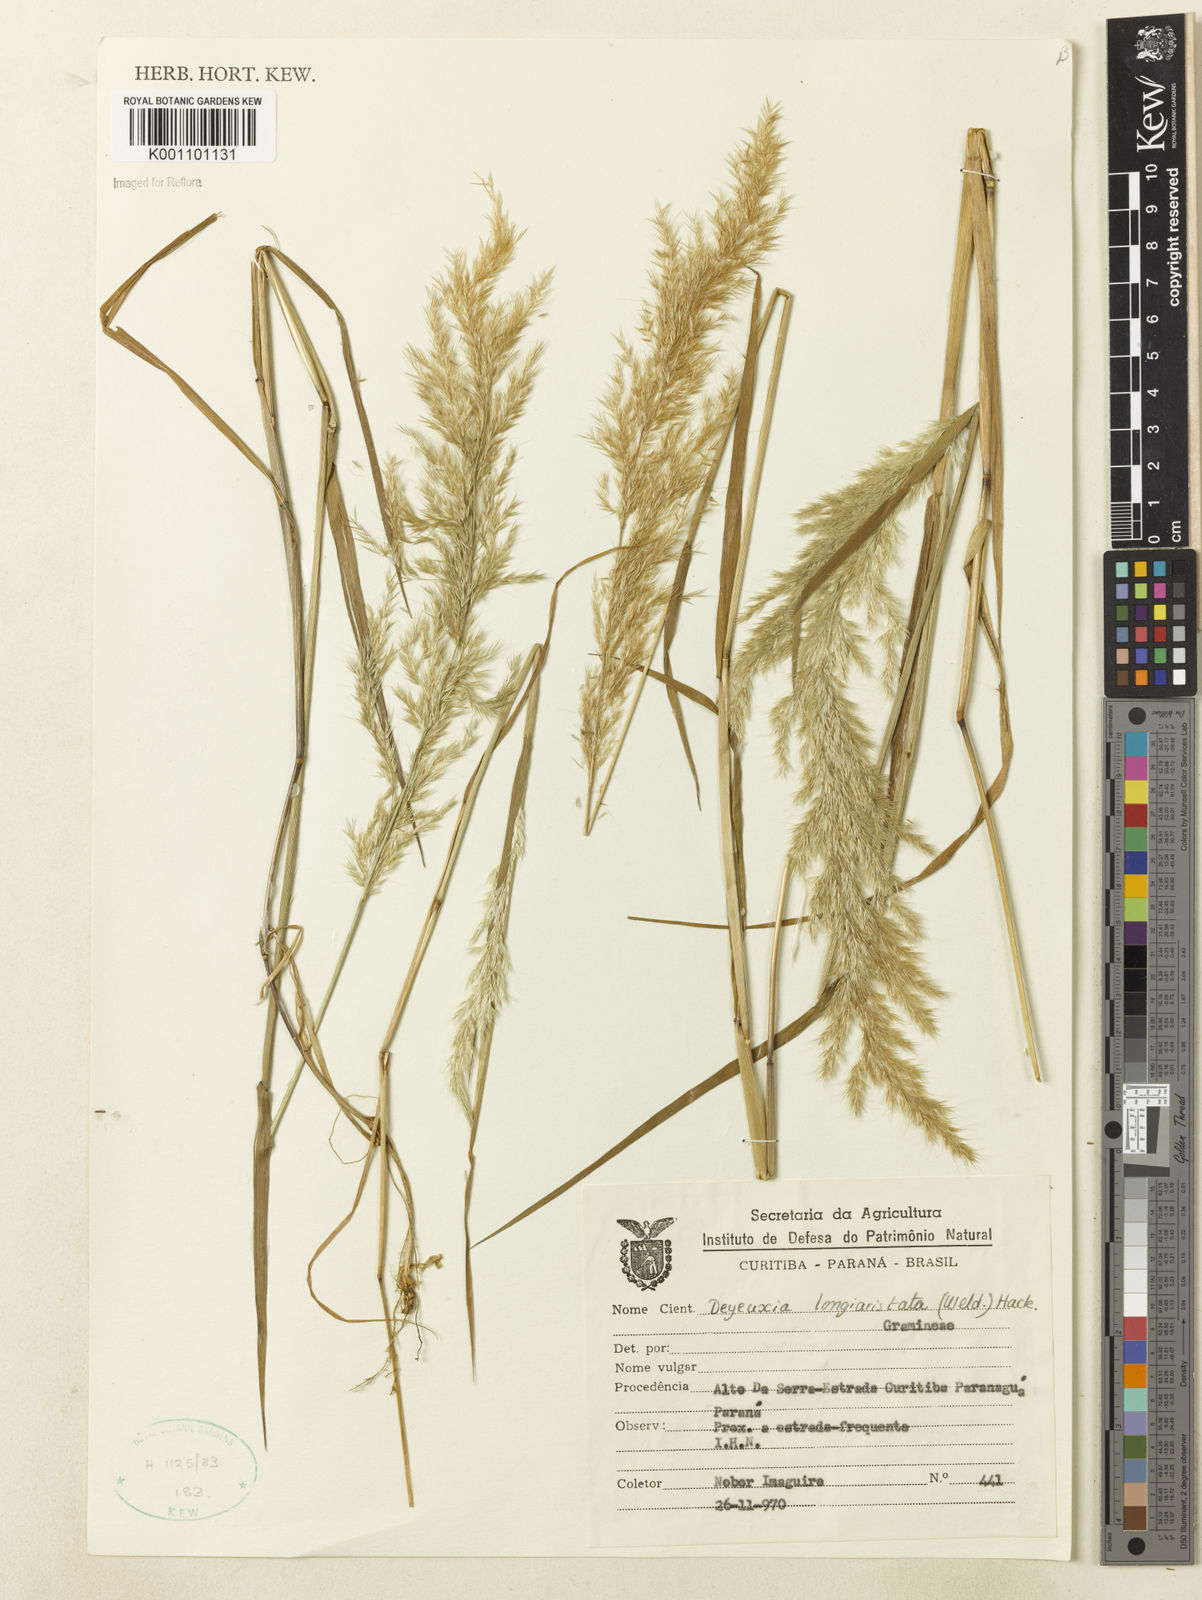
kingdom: Plantae
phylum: Tracheophyta
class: Liliopsida
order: Poales
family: Poaceae
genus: Cinnagrostis
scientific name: Cinnagrostis rupestris
